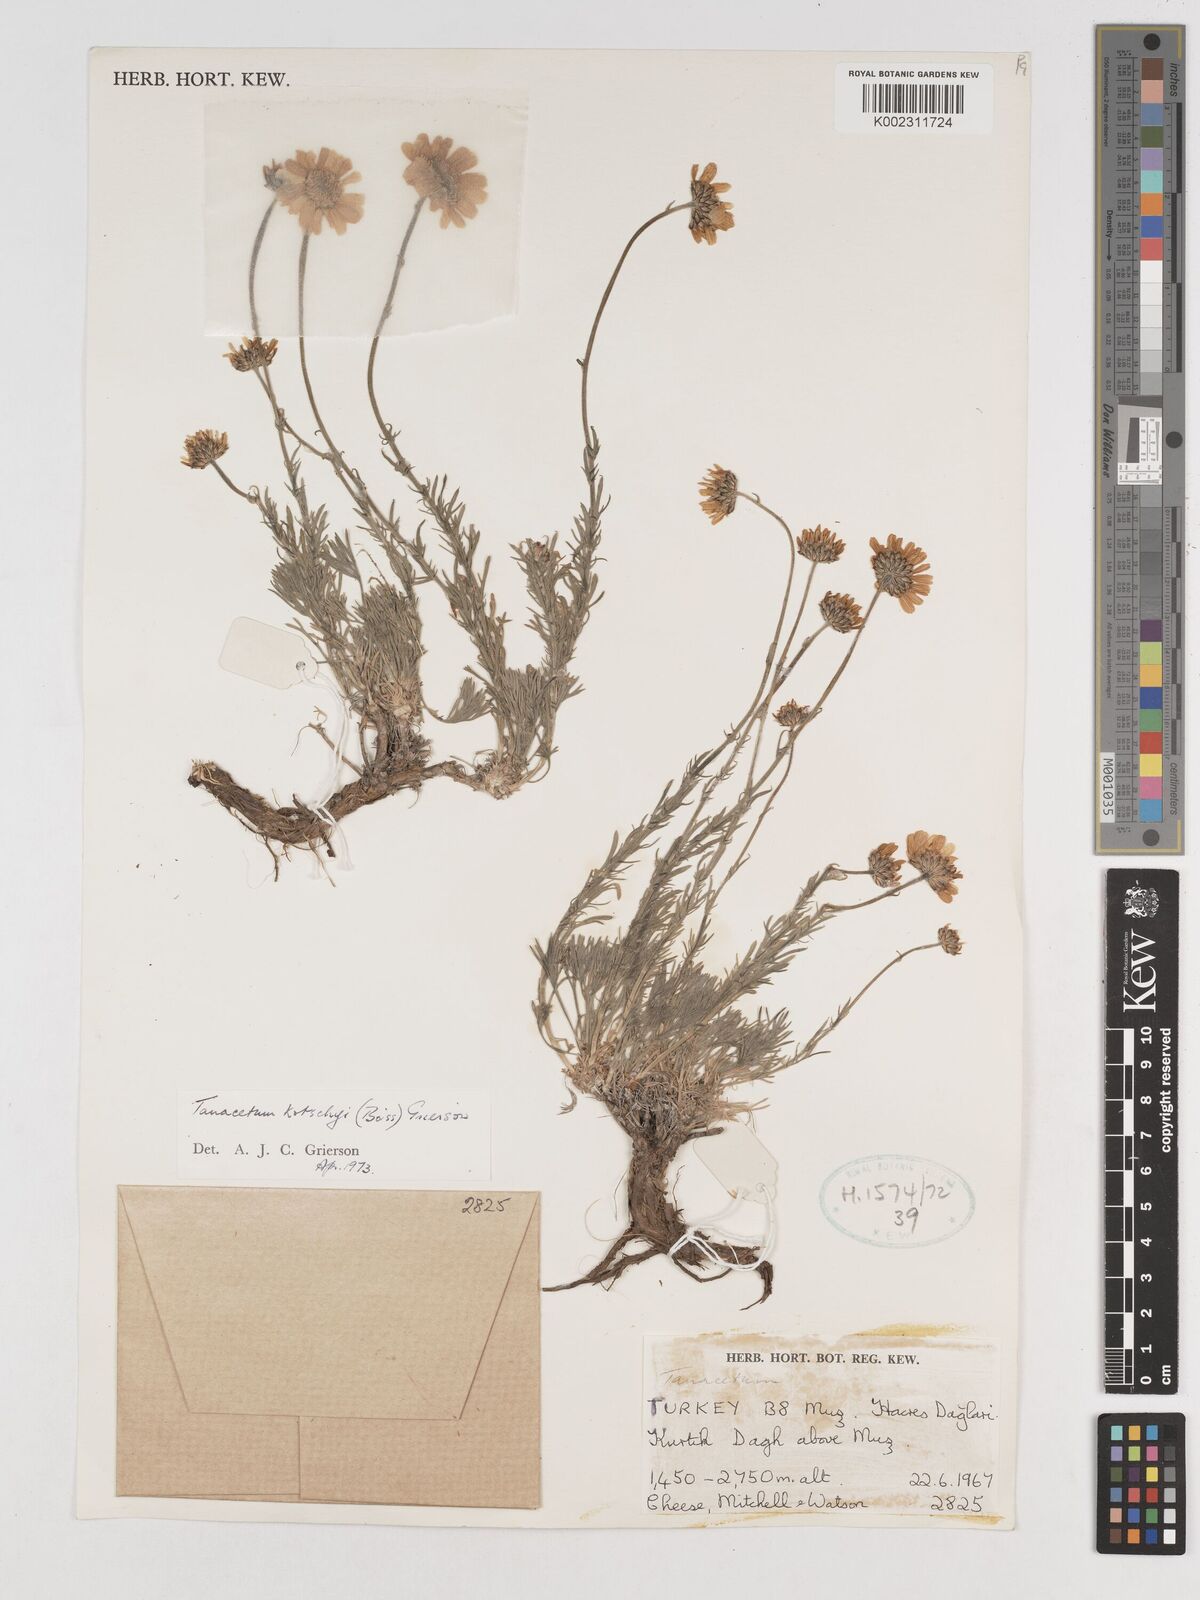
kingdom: Plantae
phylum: Tracheophyta
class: Magnoliopsida
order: Asterales
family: Asteraceae
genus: Tanacetum
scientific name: Tanacetum kotschyi
